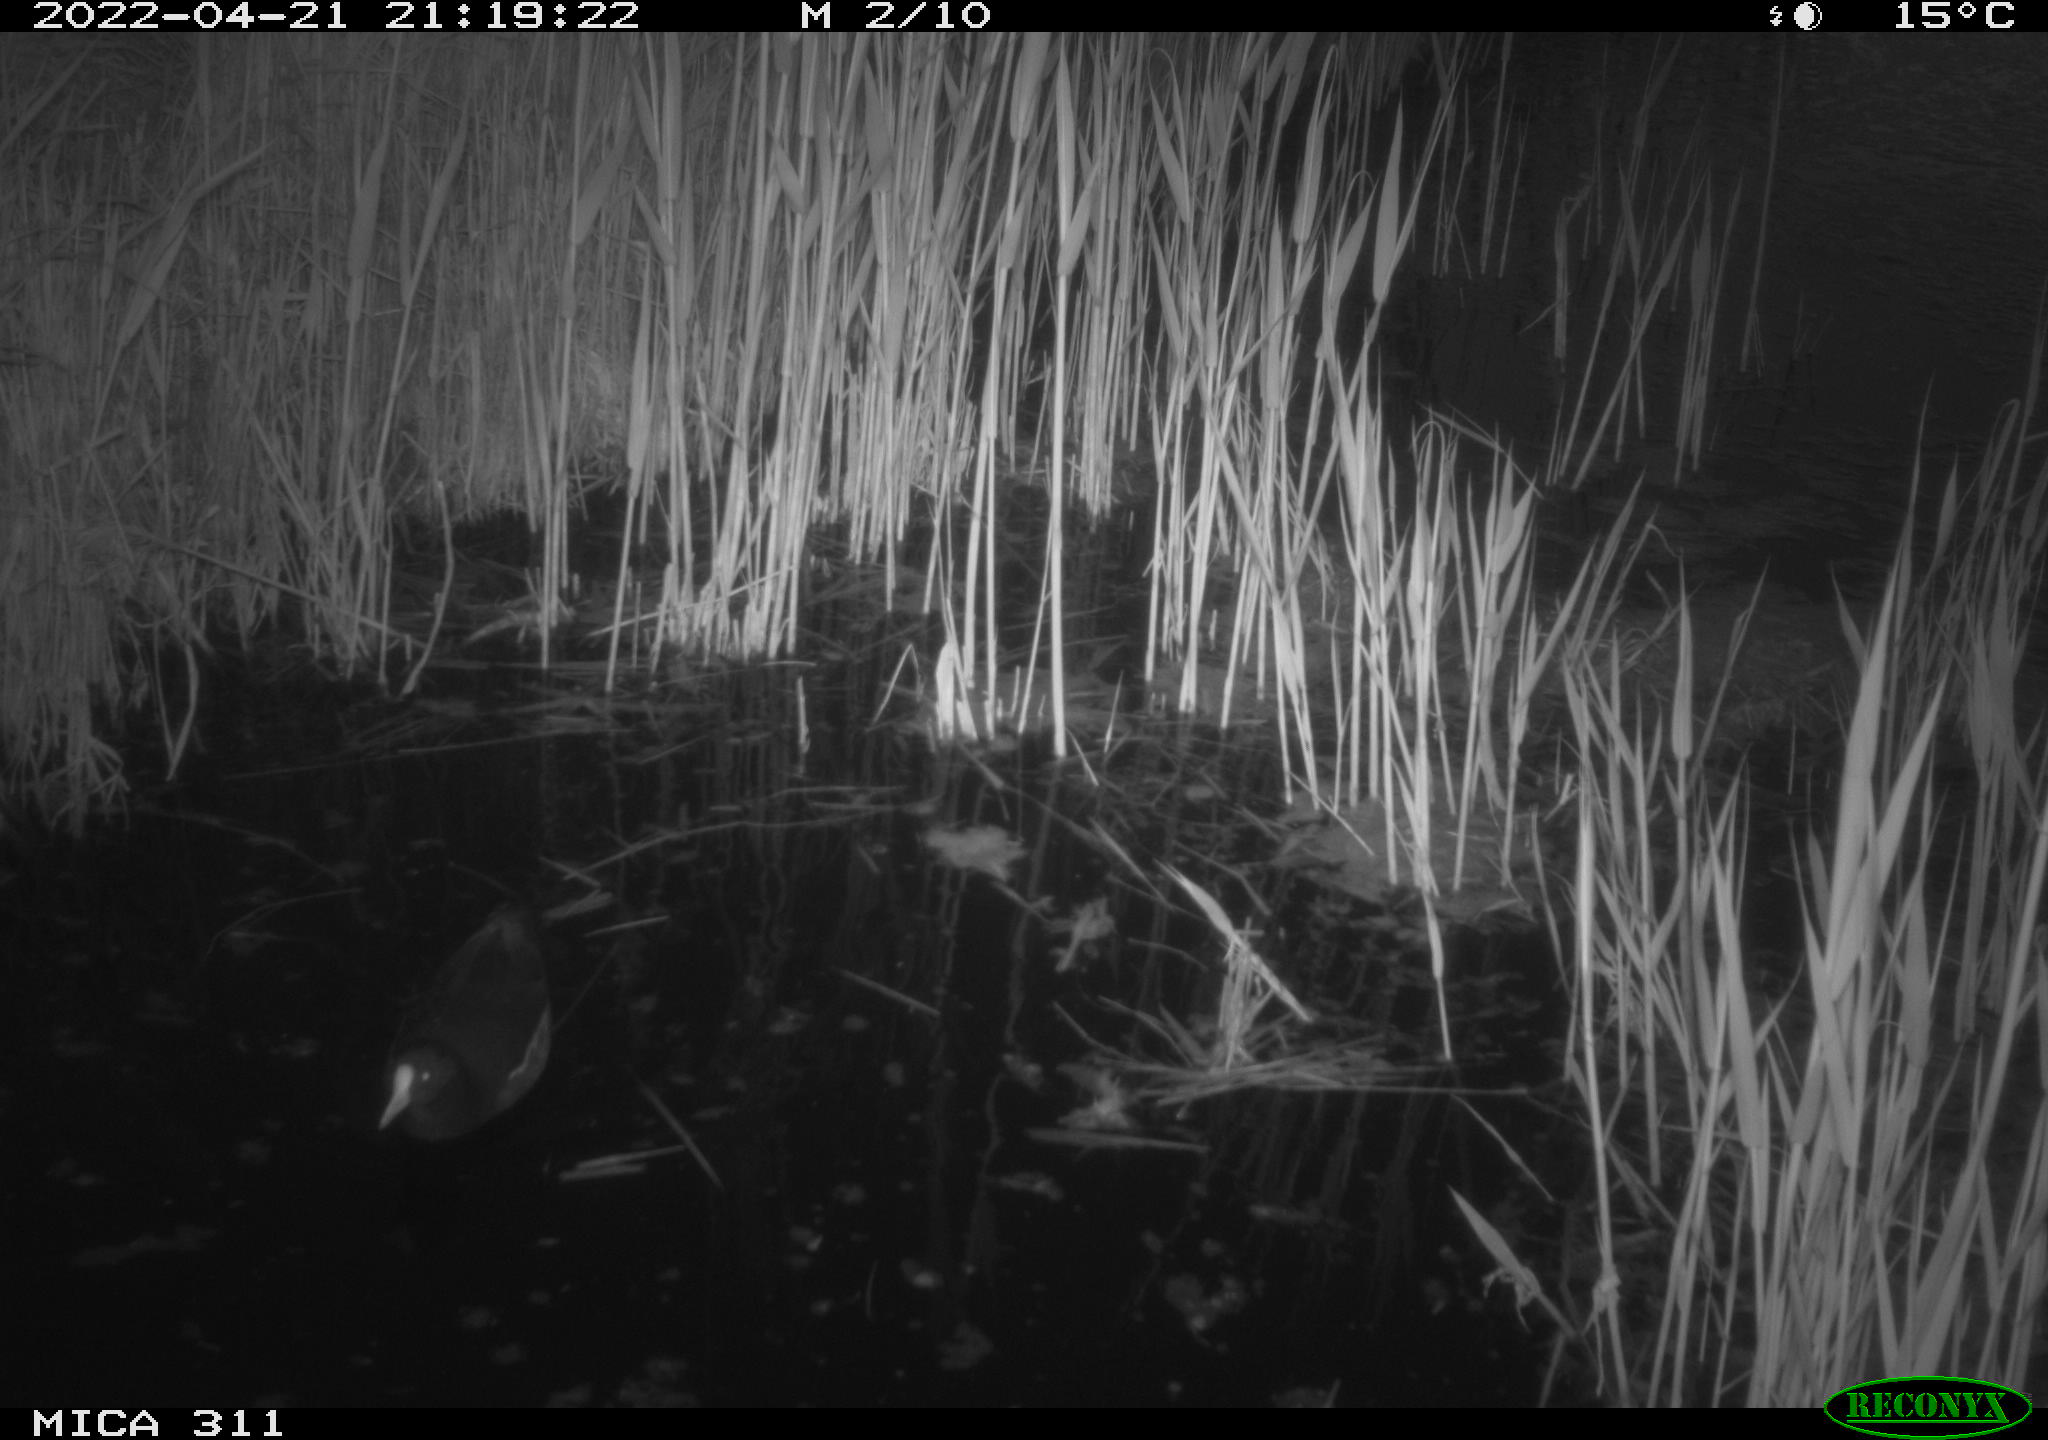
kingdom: Animalia
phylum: Chordata
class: Aves
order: Gruiformes
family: Rallidae
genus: Gallinula
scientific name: Gallinula chloropus
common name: Common moorhen
